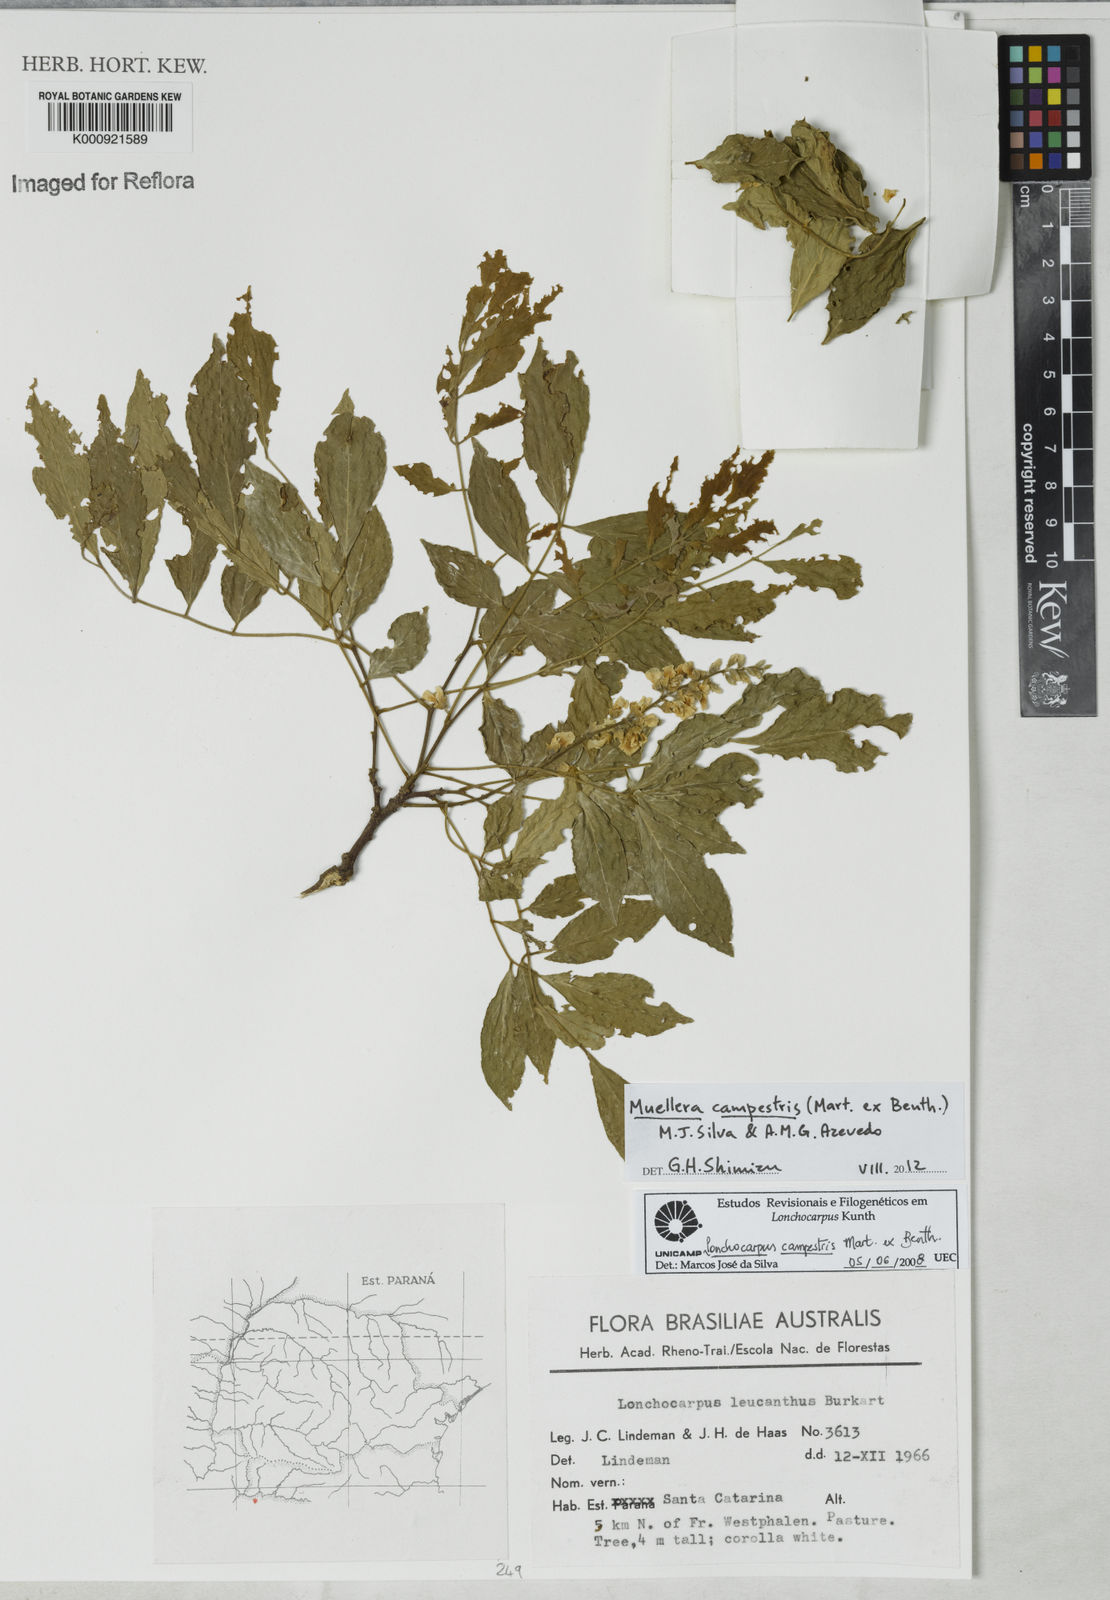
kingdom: Plantae
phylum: Tracheophyta
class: Magnoliopsida
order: Fabales
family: Fabaceae
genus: Muellera
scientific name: Muellera campestris
